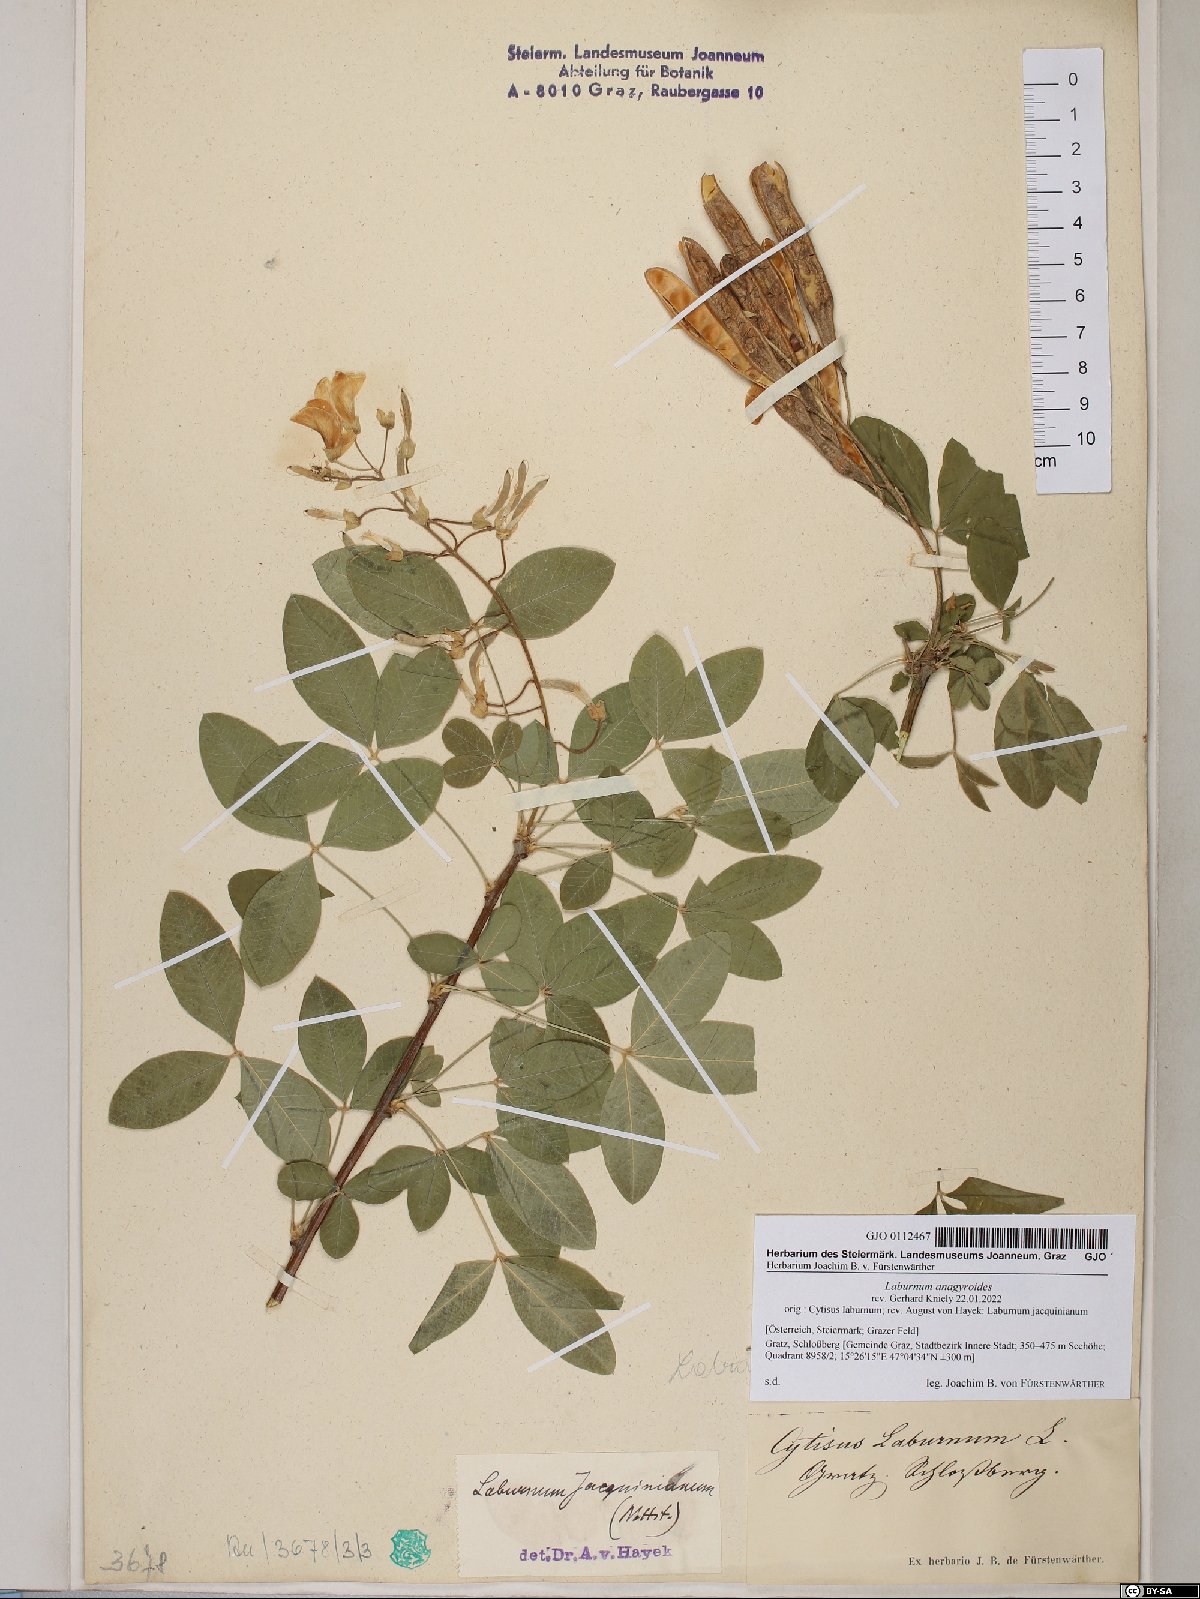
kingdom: Plantae
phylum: Tracheophyta
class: Magnoliopsida
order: Fabales
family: Fabaceae
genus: Laburnum
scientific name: Laburnum anagyroides
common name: Laburnum
